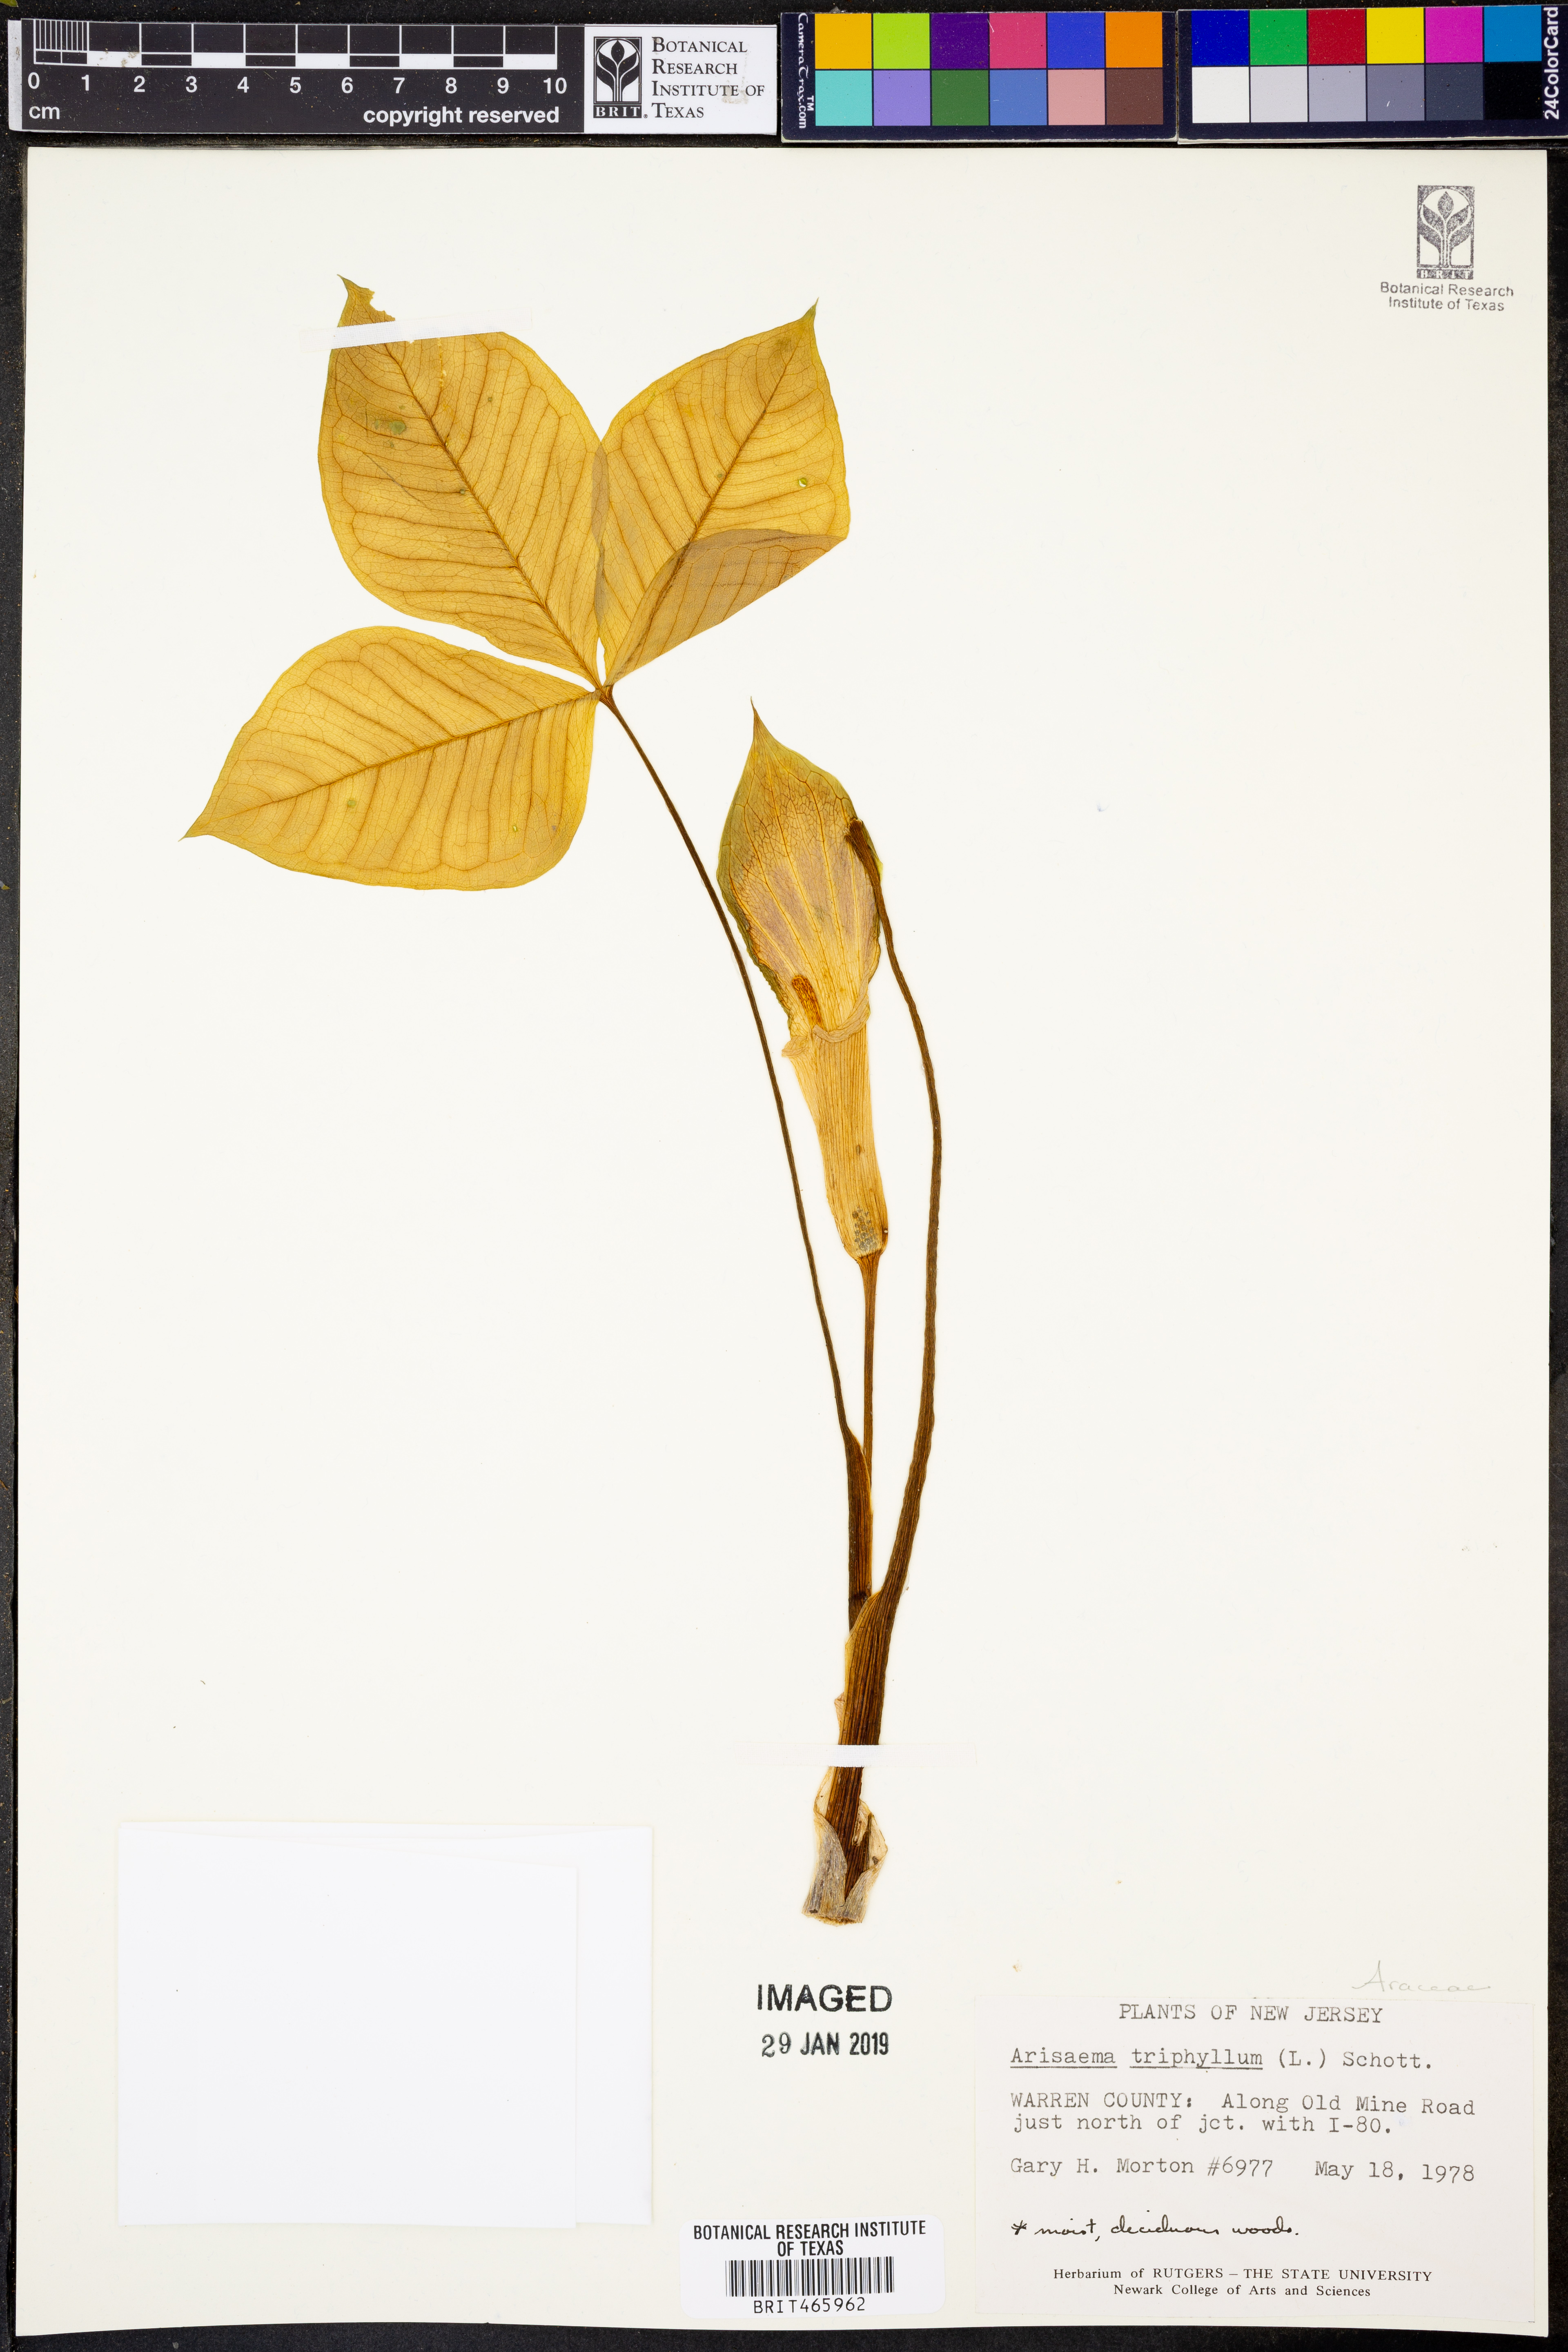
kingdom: Plantae
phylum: Tracheophyta
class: Liliopsida
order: Alismatales
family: Araceae
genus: Arisaema
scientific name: Arisaema triphyllum
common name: Jack-in-the-pulpit
